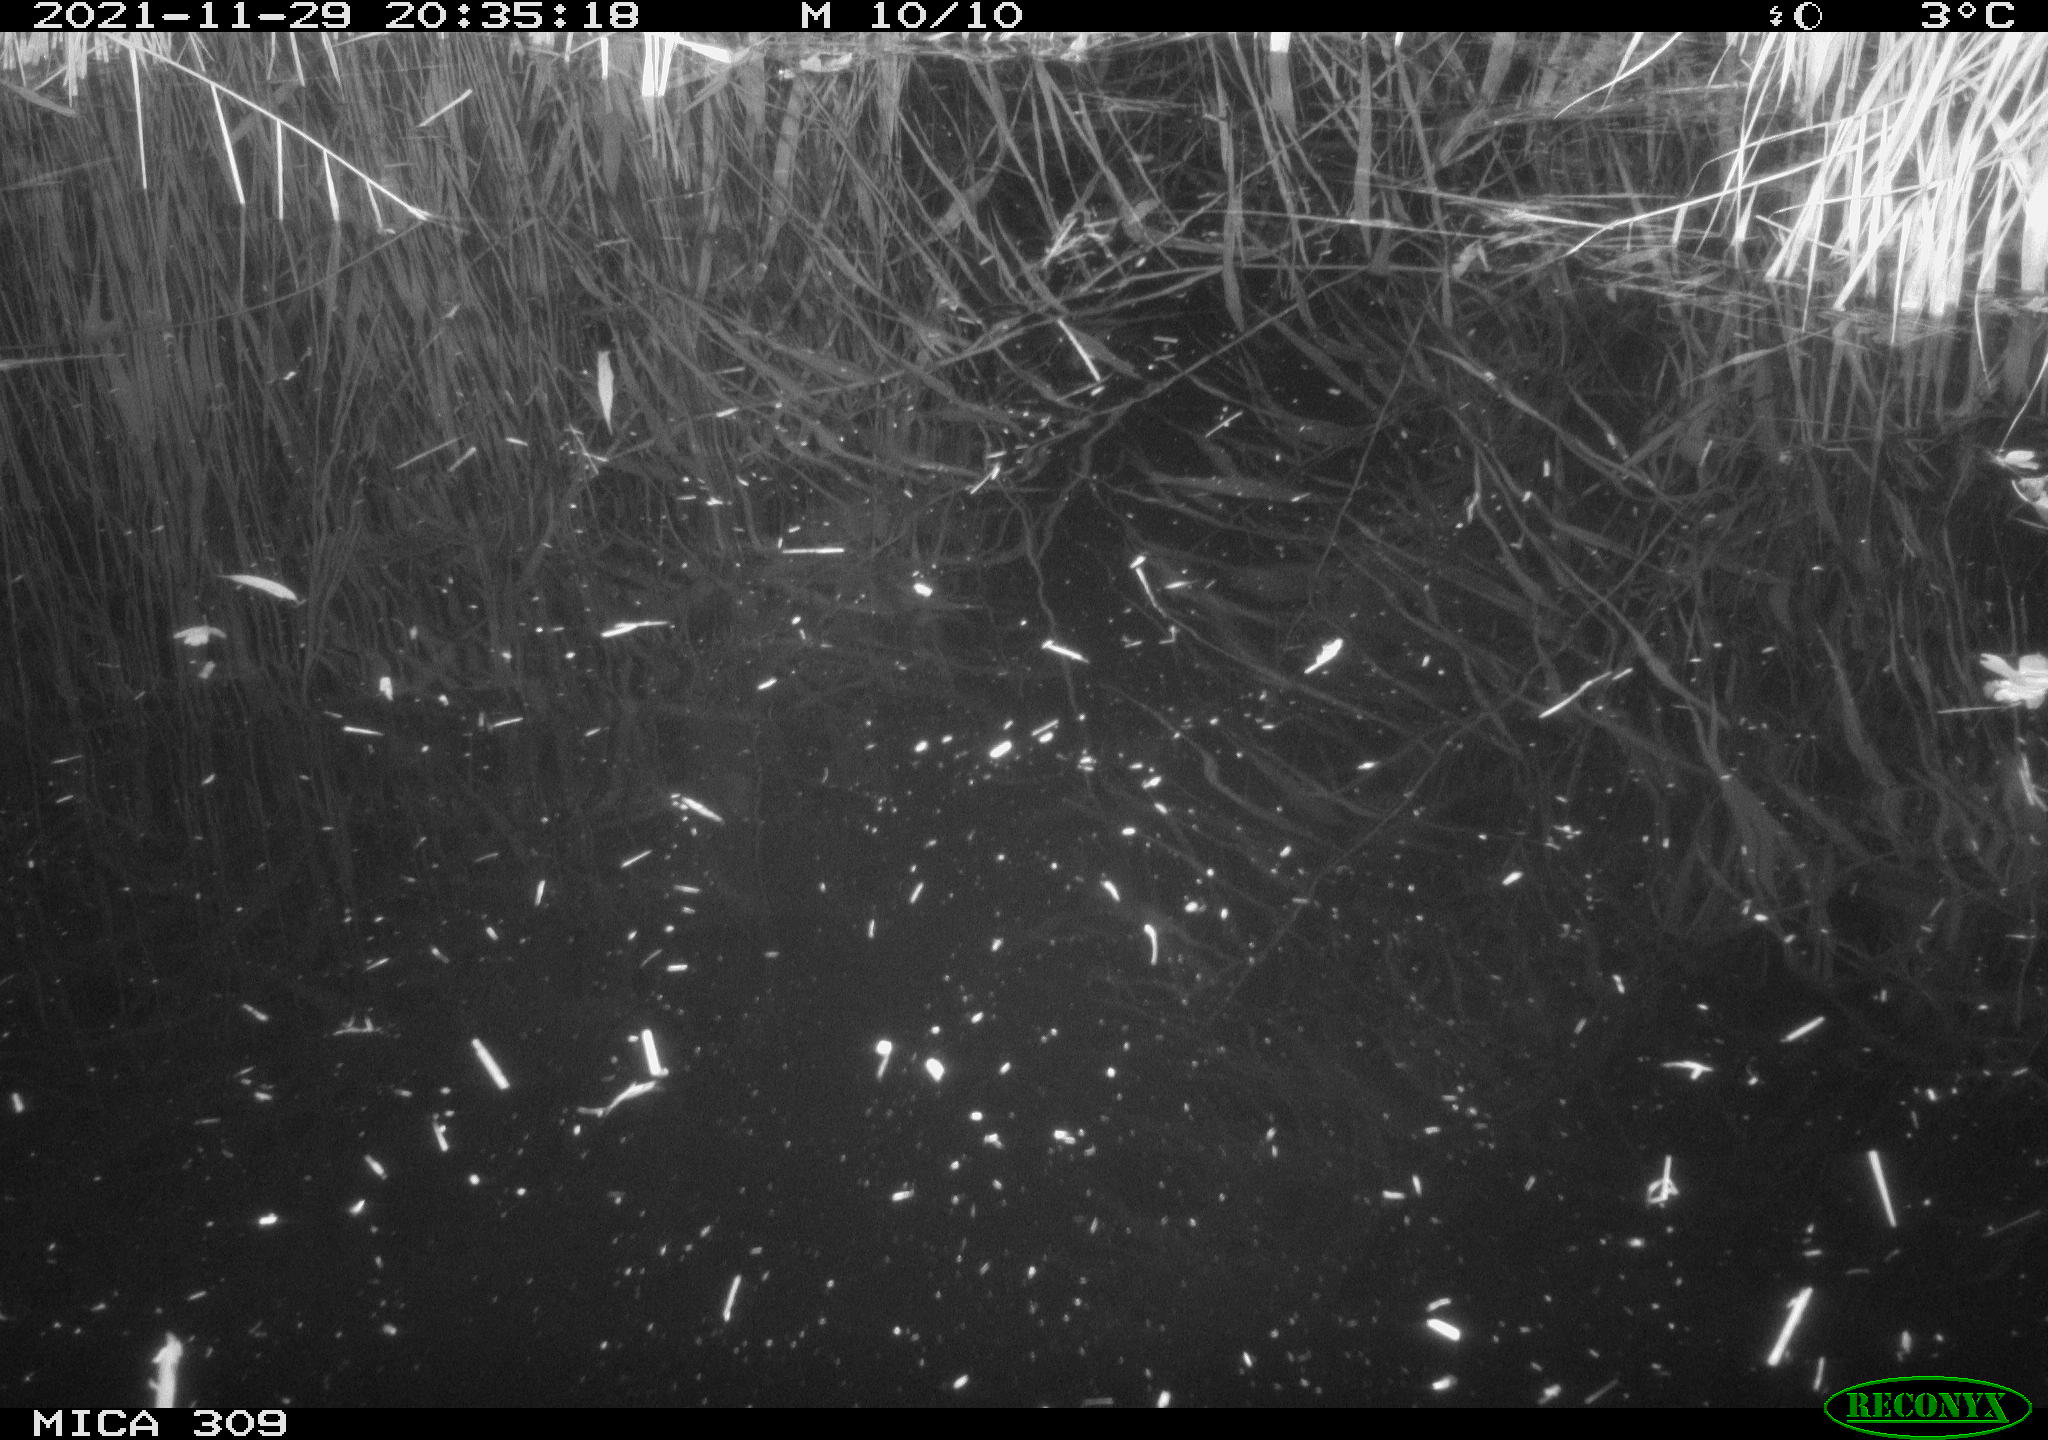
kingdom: Animalia
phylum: Chordata
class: Mammalia
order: Rodentia
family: Cricetidae
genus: Ondatra
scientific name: Ondatra zibethicus
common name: Muskrat
